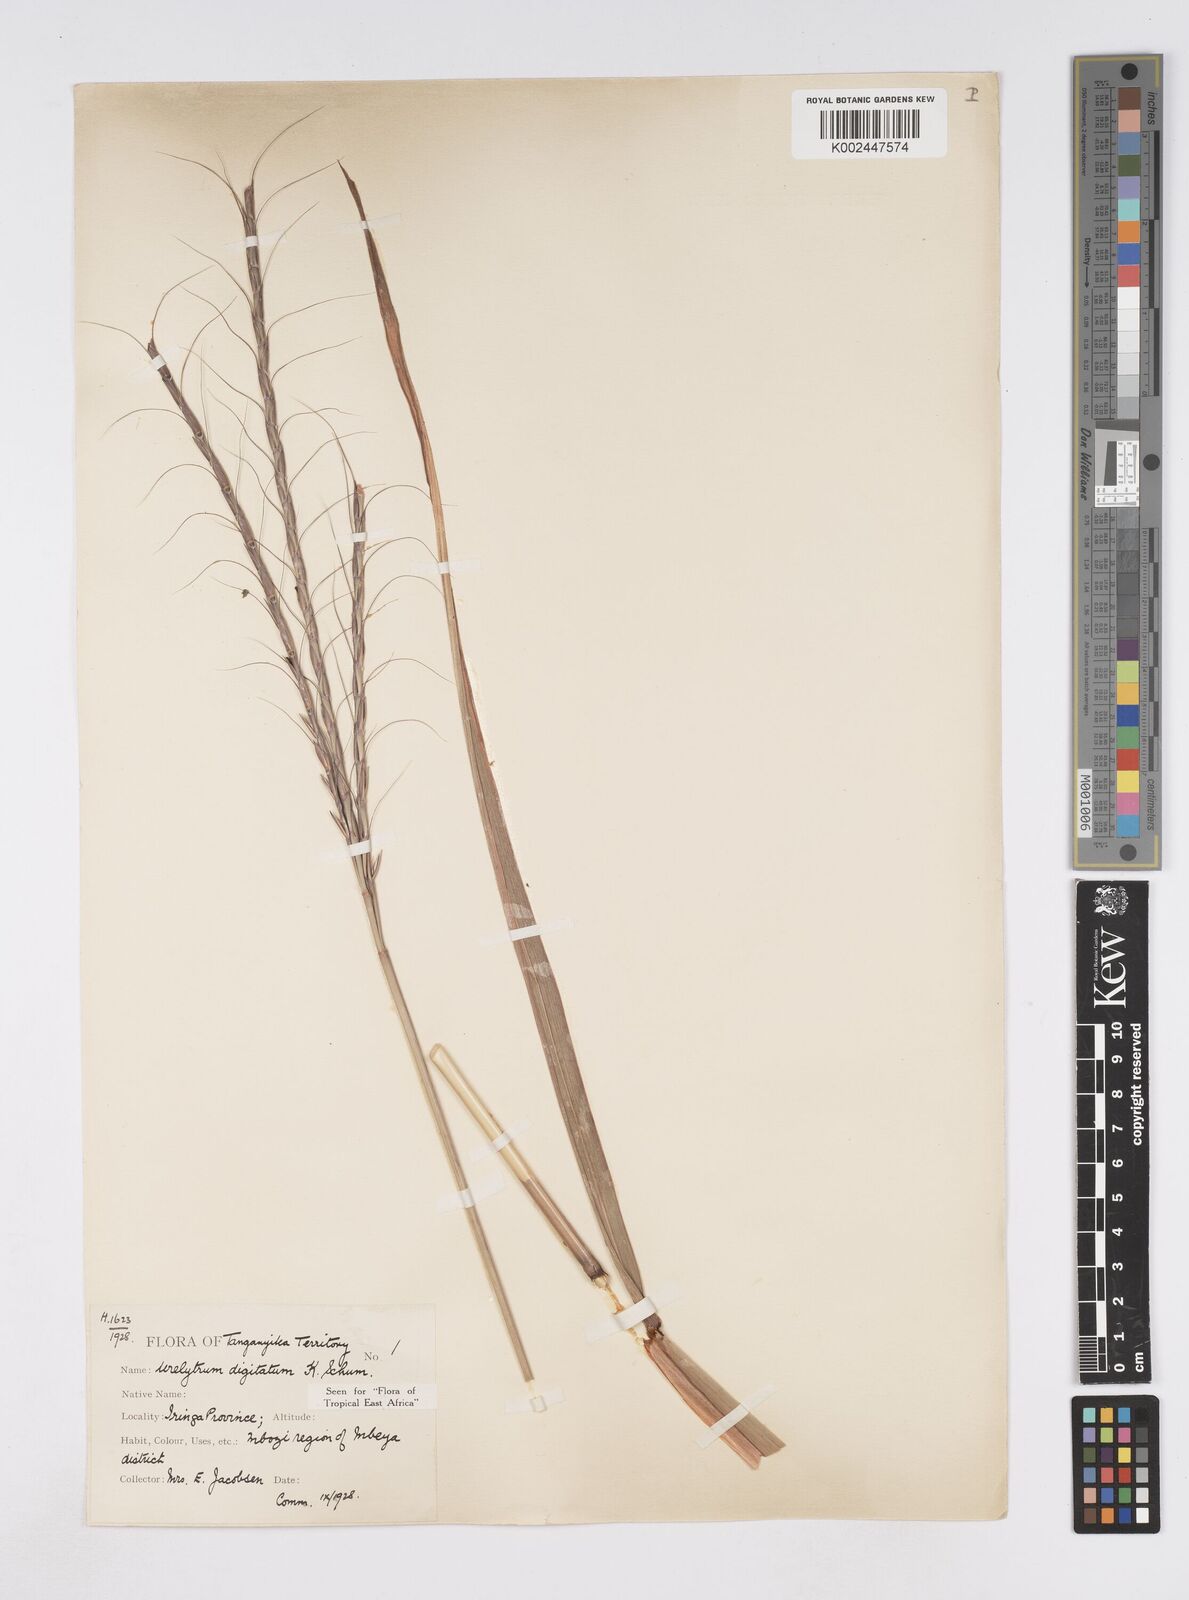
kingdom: Plantae
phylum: Tracheophyta
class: Liliopsida
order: Poales
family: Poaceae
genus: Urelytrum
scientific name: Urelytrum digitatum
